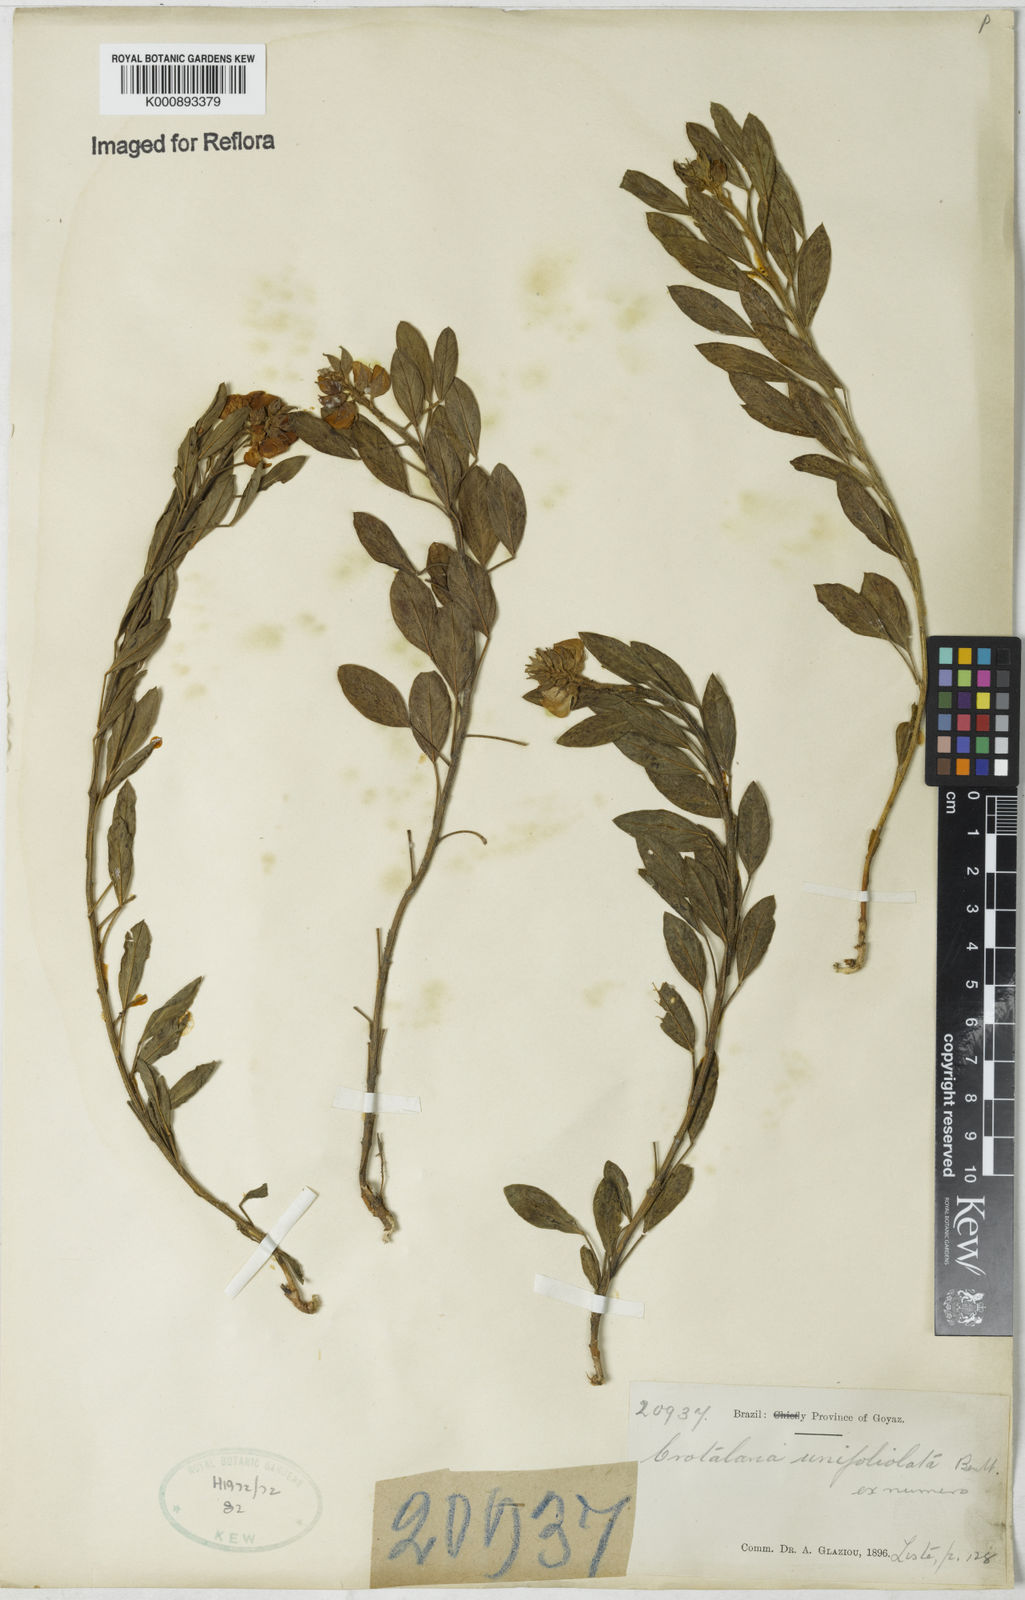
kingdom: Plantae
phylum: Tracheophyta
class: Magnoliopsida
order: Fabales
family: Fabaceae
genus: Crotalaria
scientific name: Crotalaria unifoliolata
